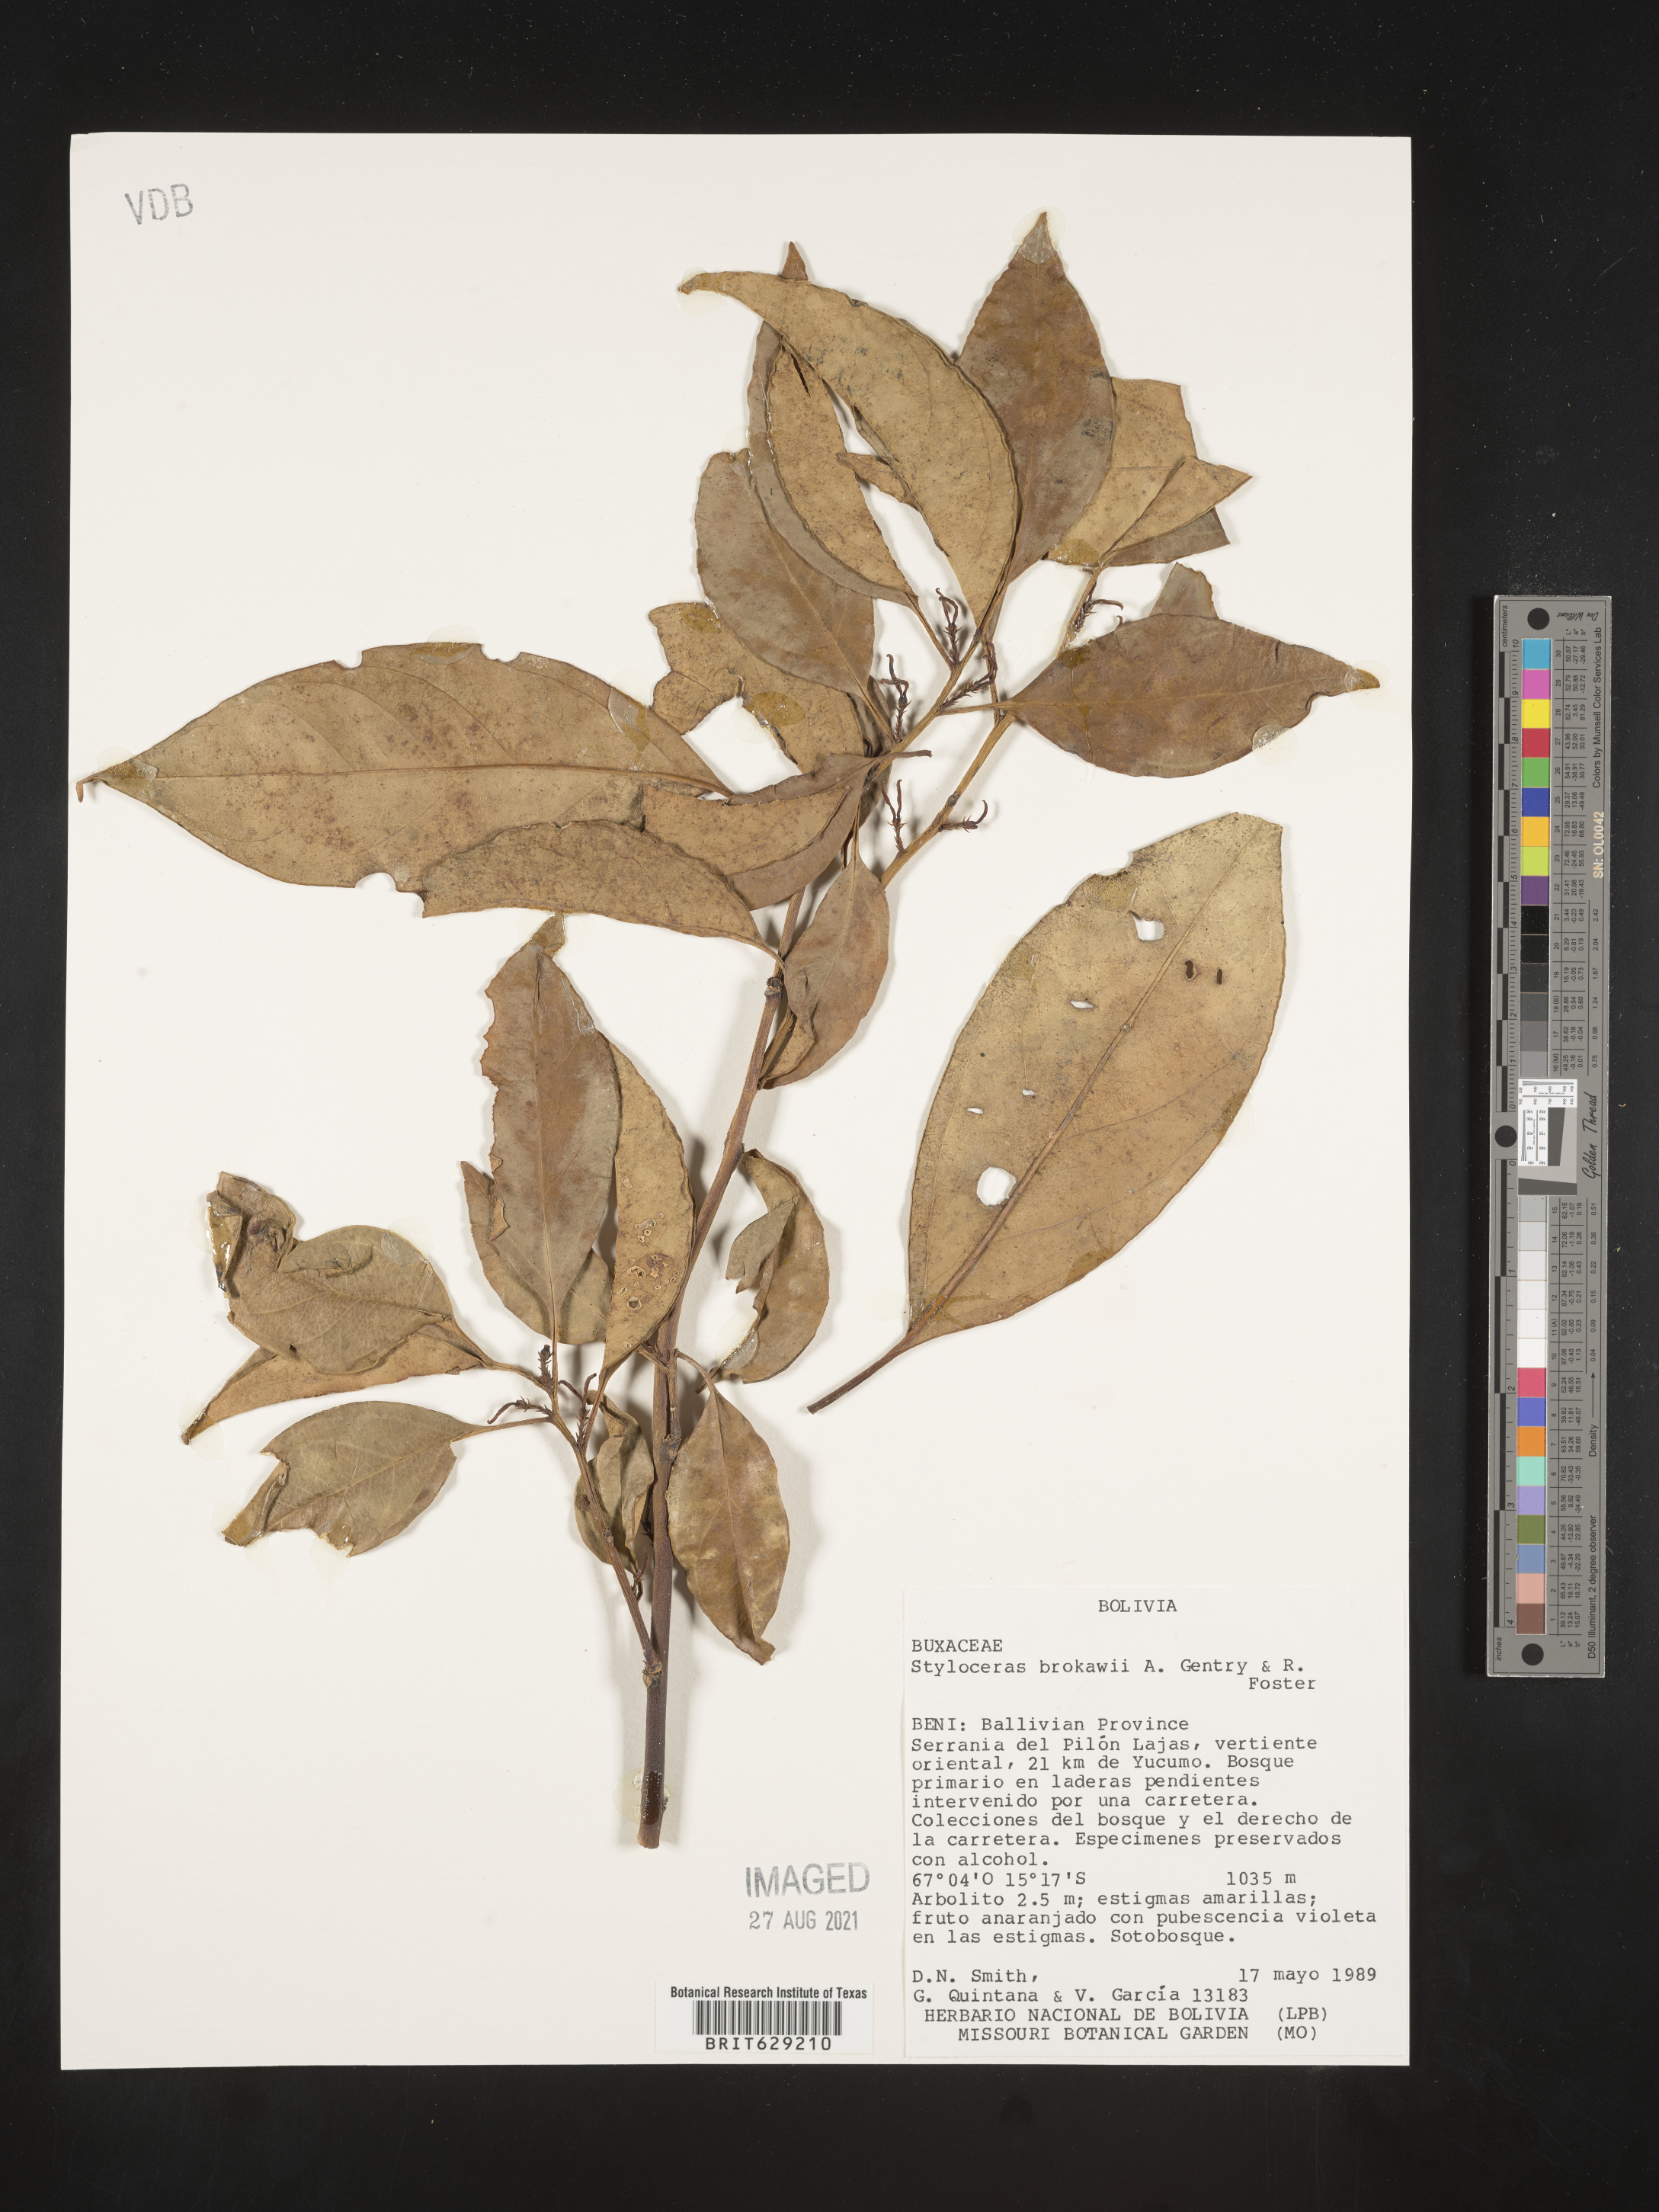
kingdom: Plantae
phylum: Tracheophyta
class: Magnoliopsida
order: Buxales
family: Buxaceae
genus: Styloceras
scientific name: Styloceras brokawii
